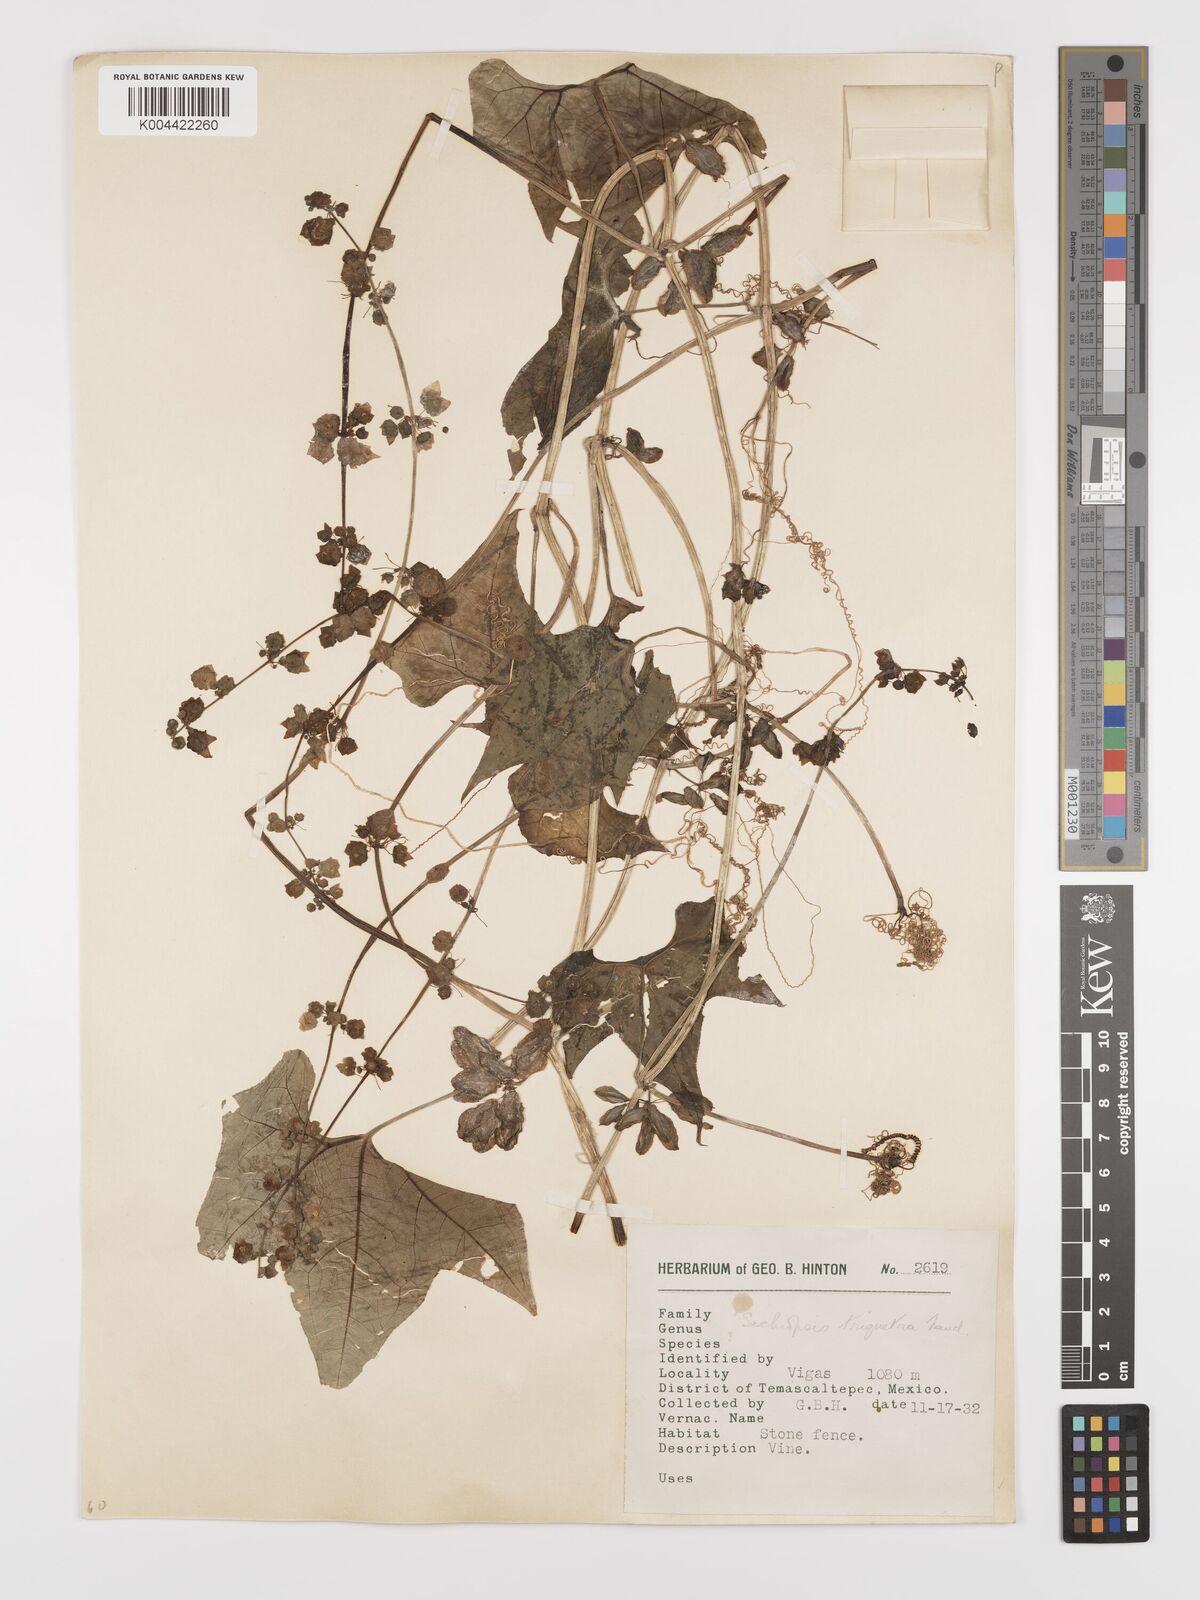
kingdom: Plantae
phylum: Tracheophyta
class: Magnoliopsida
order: Cucurbitales
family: Cucurbitaceae
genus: Sechiopsis
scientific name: Sechiopsis triqueter
